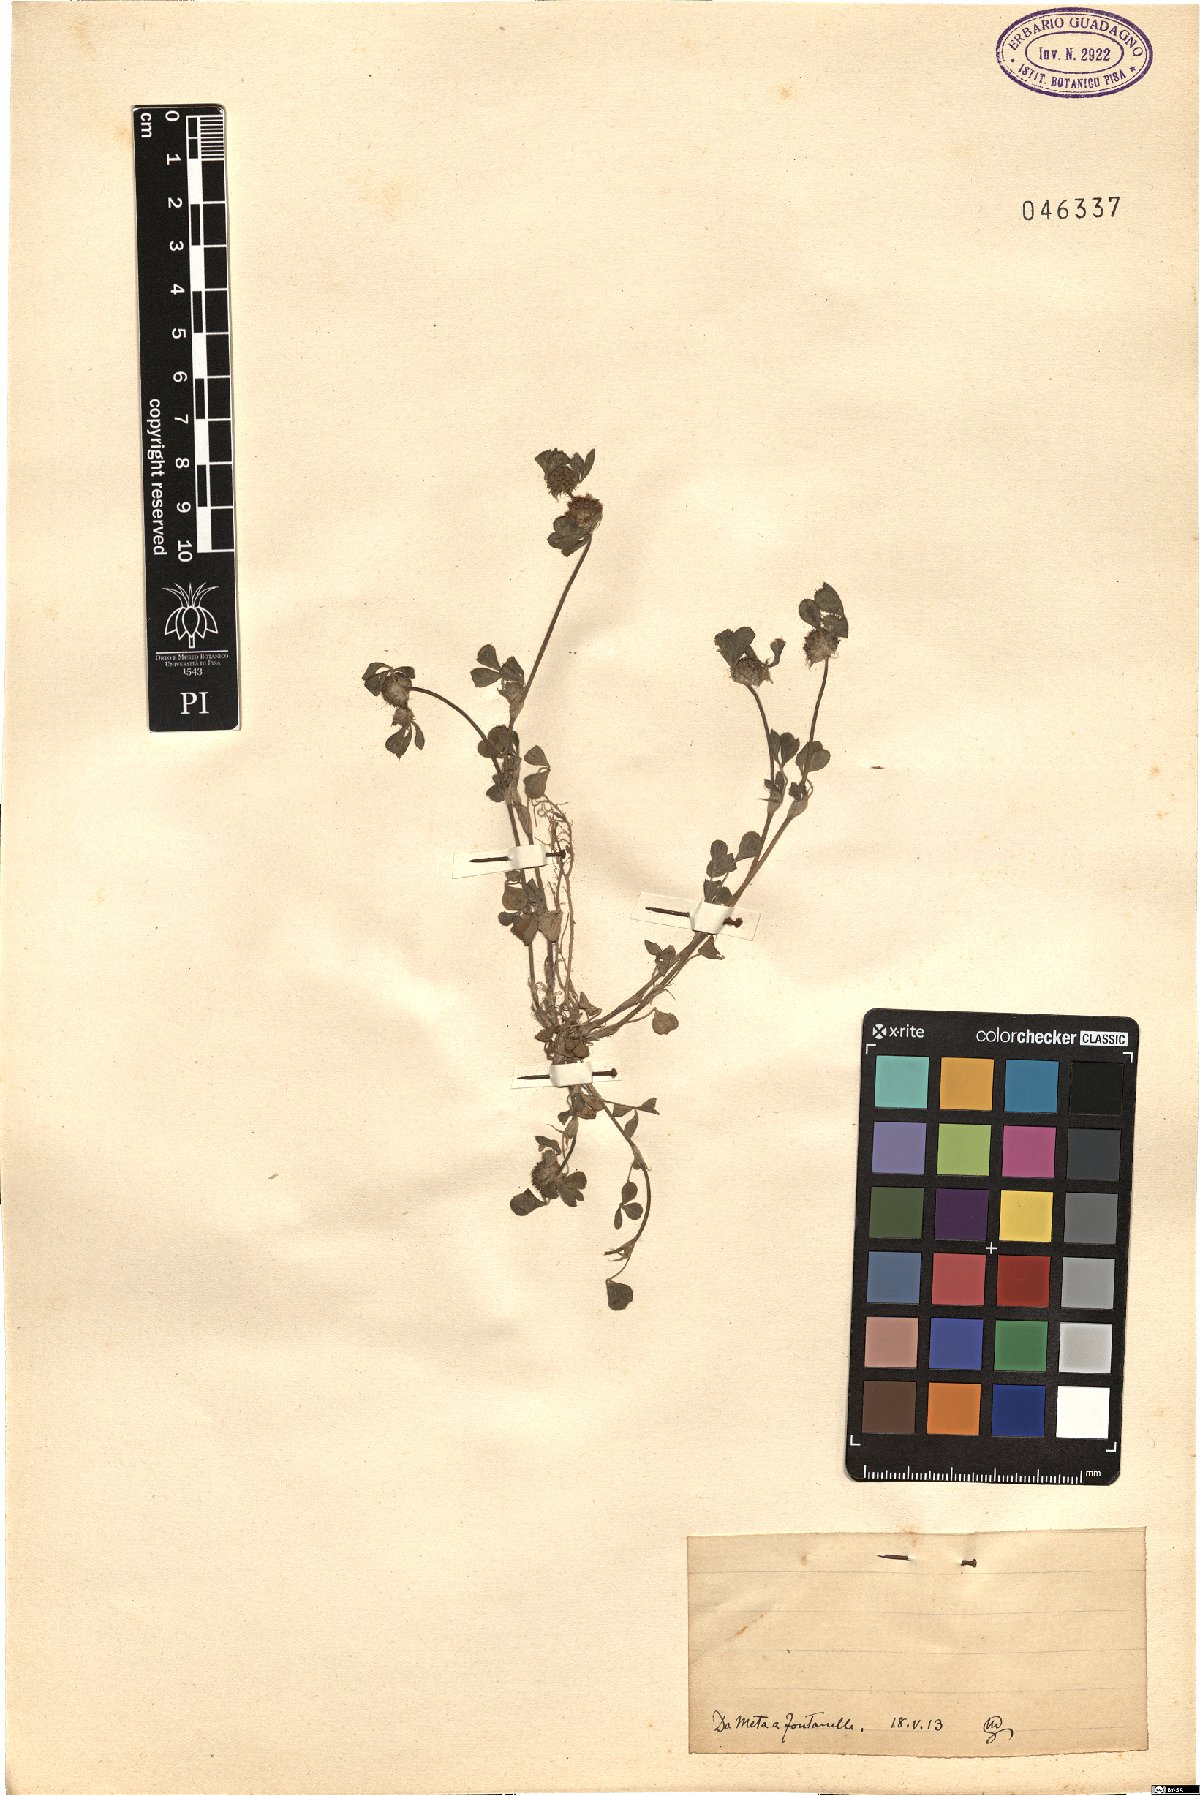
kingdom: Plantae
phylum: Tracheophyta
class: Magnoliopsida
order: Fabales
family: Fabaceae
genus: Trifolium
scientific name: Trifolium
